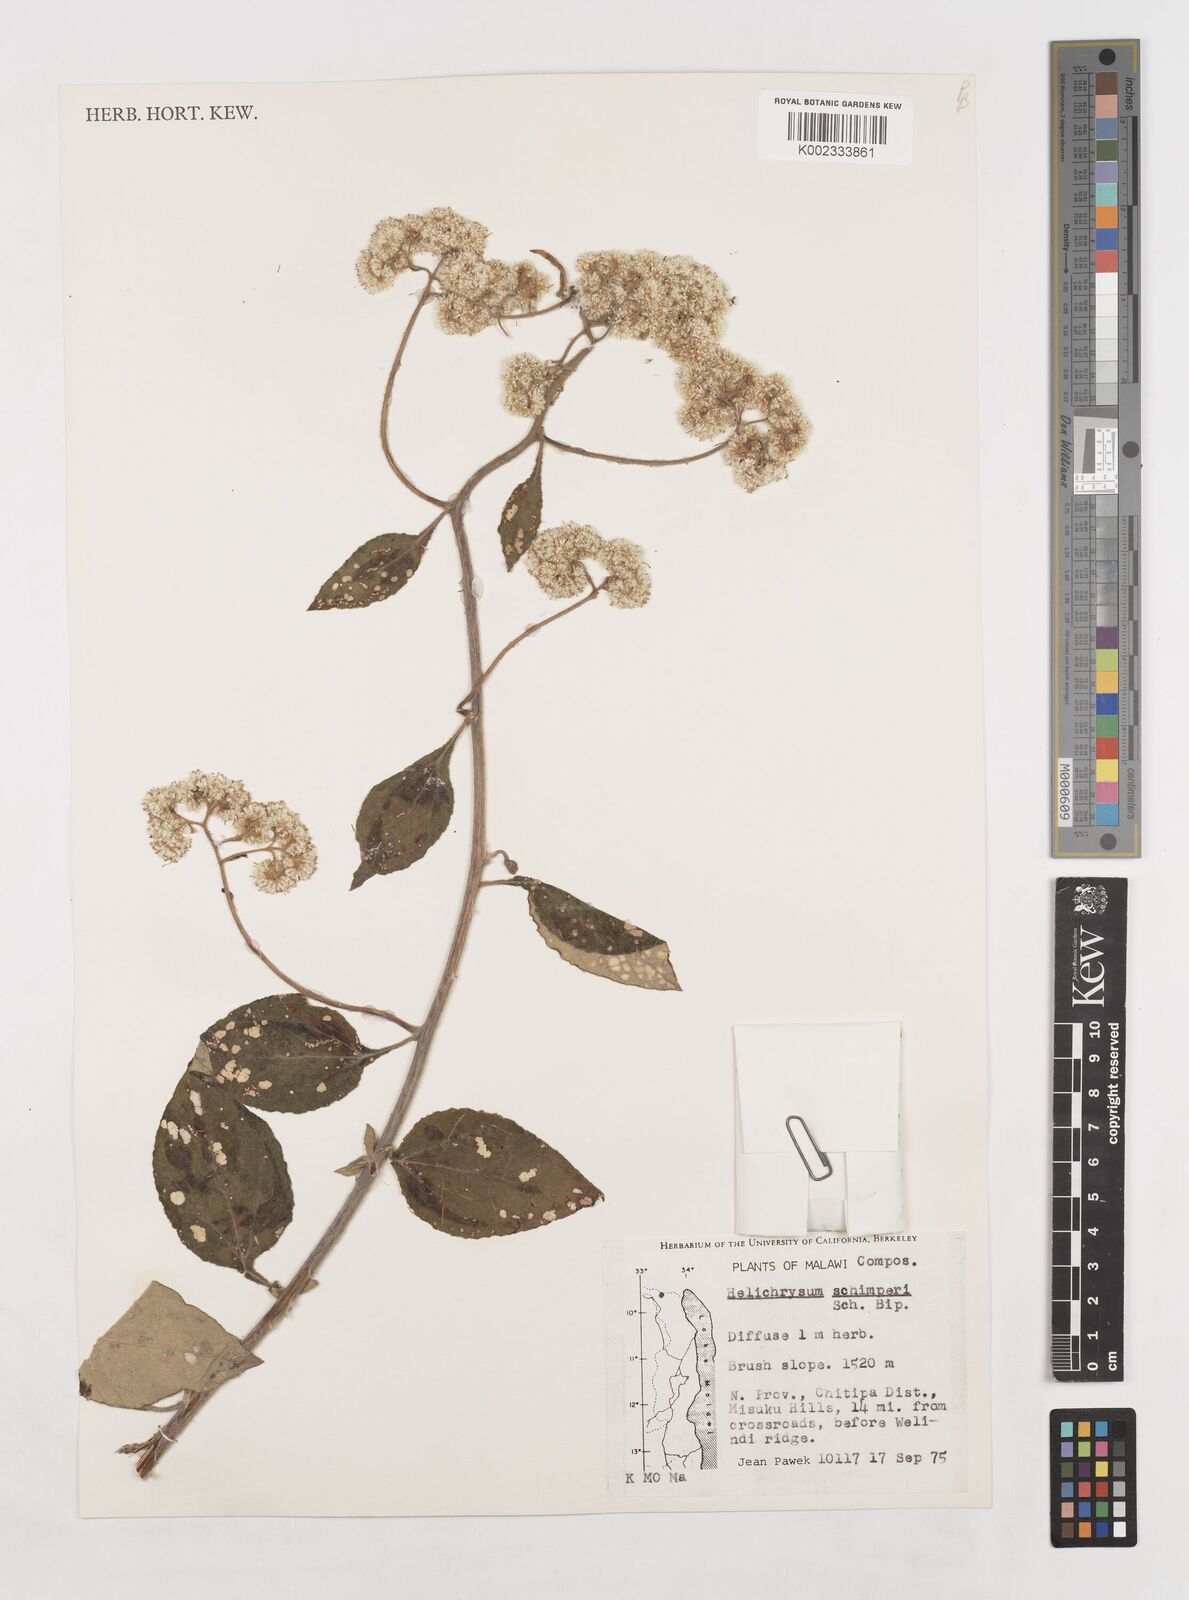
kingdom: Plantae
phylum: Tracheophyta
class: Magnoliopsida
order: Asterales
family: Asteraceae
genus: Helichrysum
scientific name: Helichrysum schimperi
